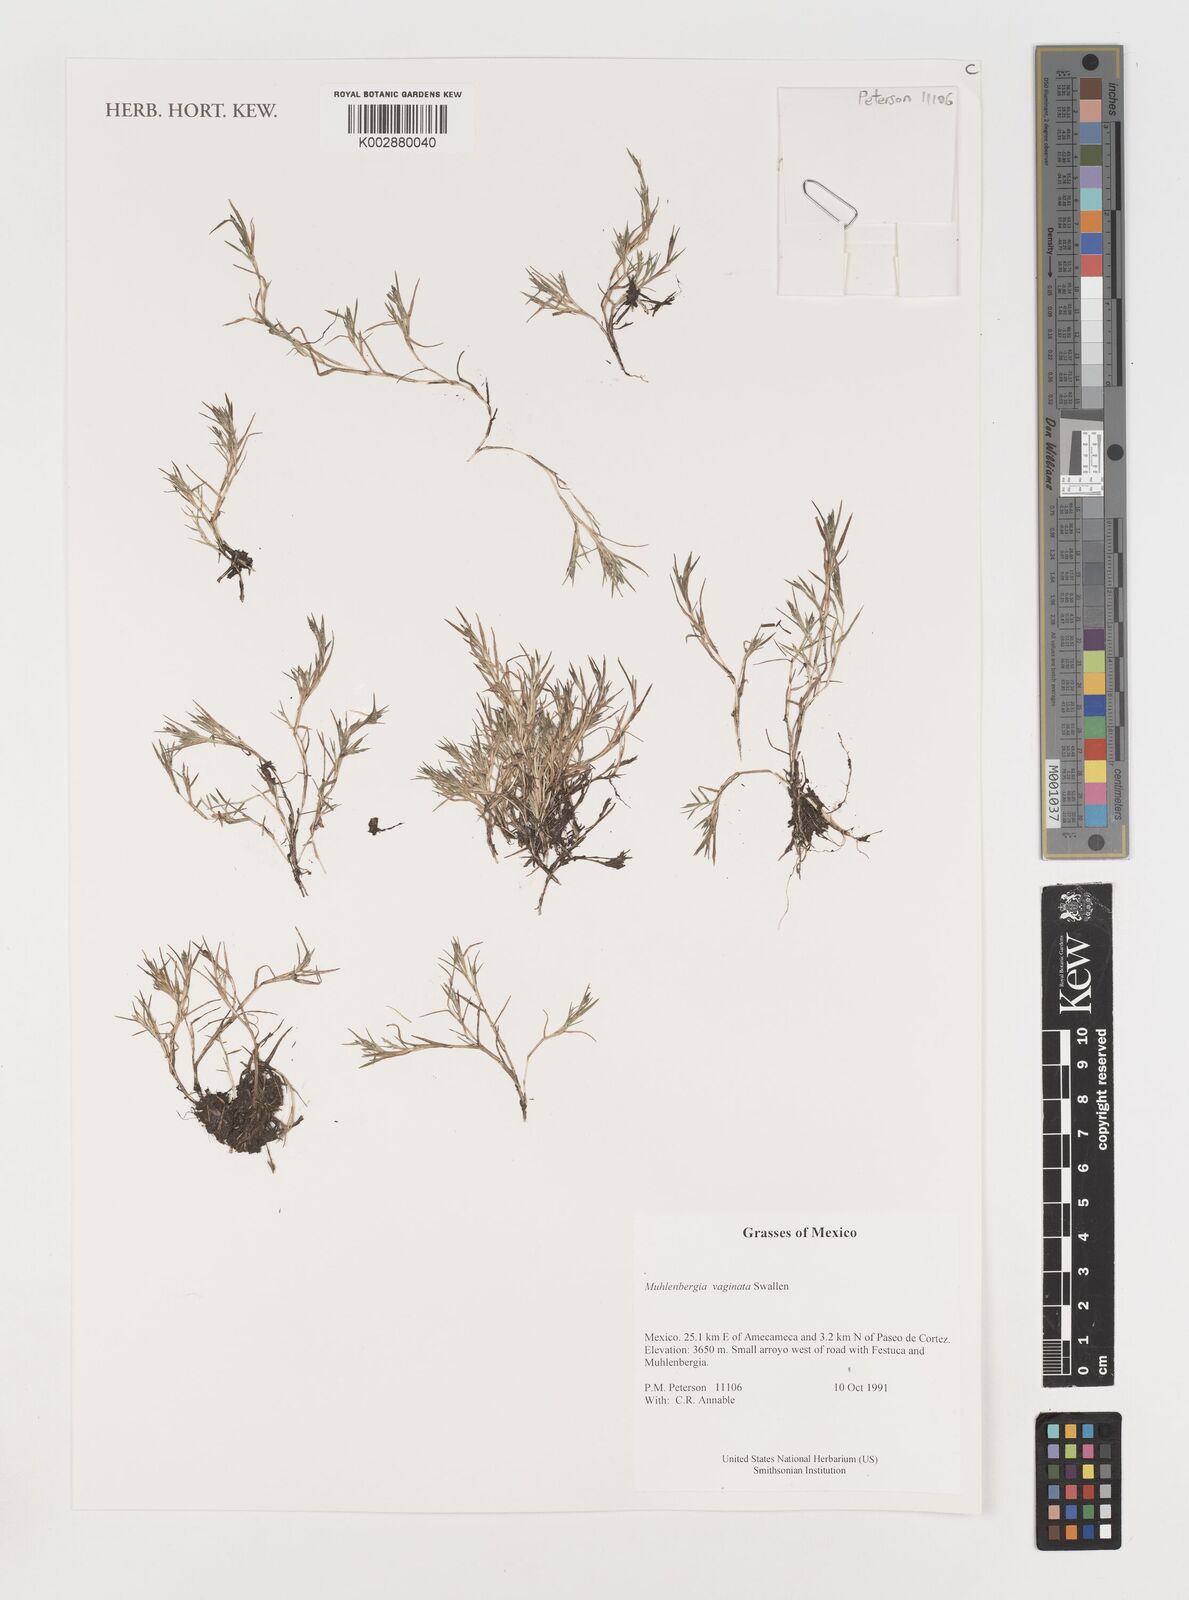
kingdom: Plantae
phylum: Tracheophyta
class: Liliopsida
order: Poales
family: Poaceae
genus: Muhlenbergia
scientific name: Muhlenbergia vaginata
